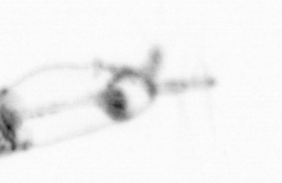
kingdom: Animalia
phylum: Arthropoda
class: Copepoda
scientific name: Copepoda
